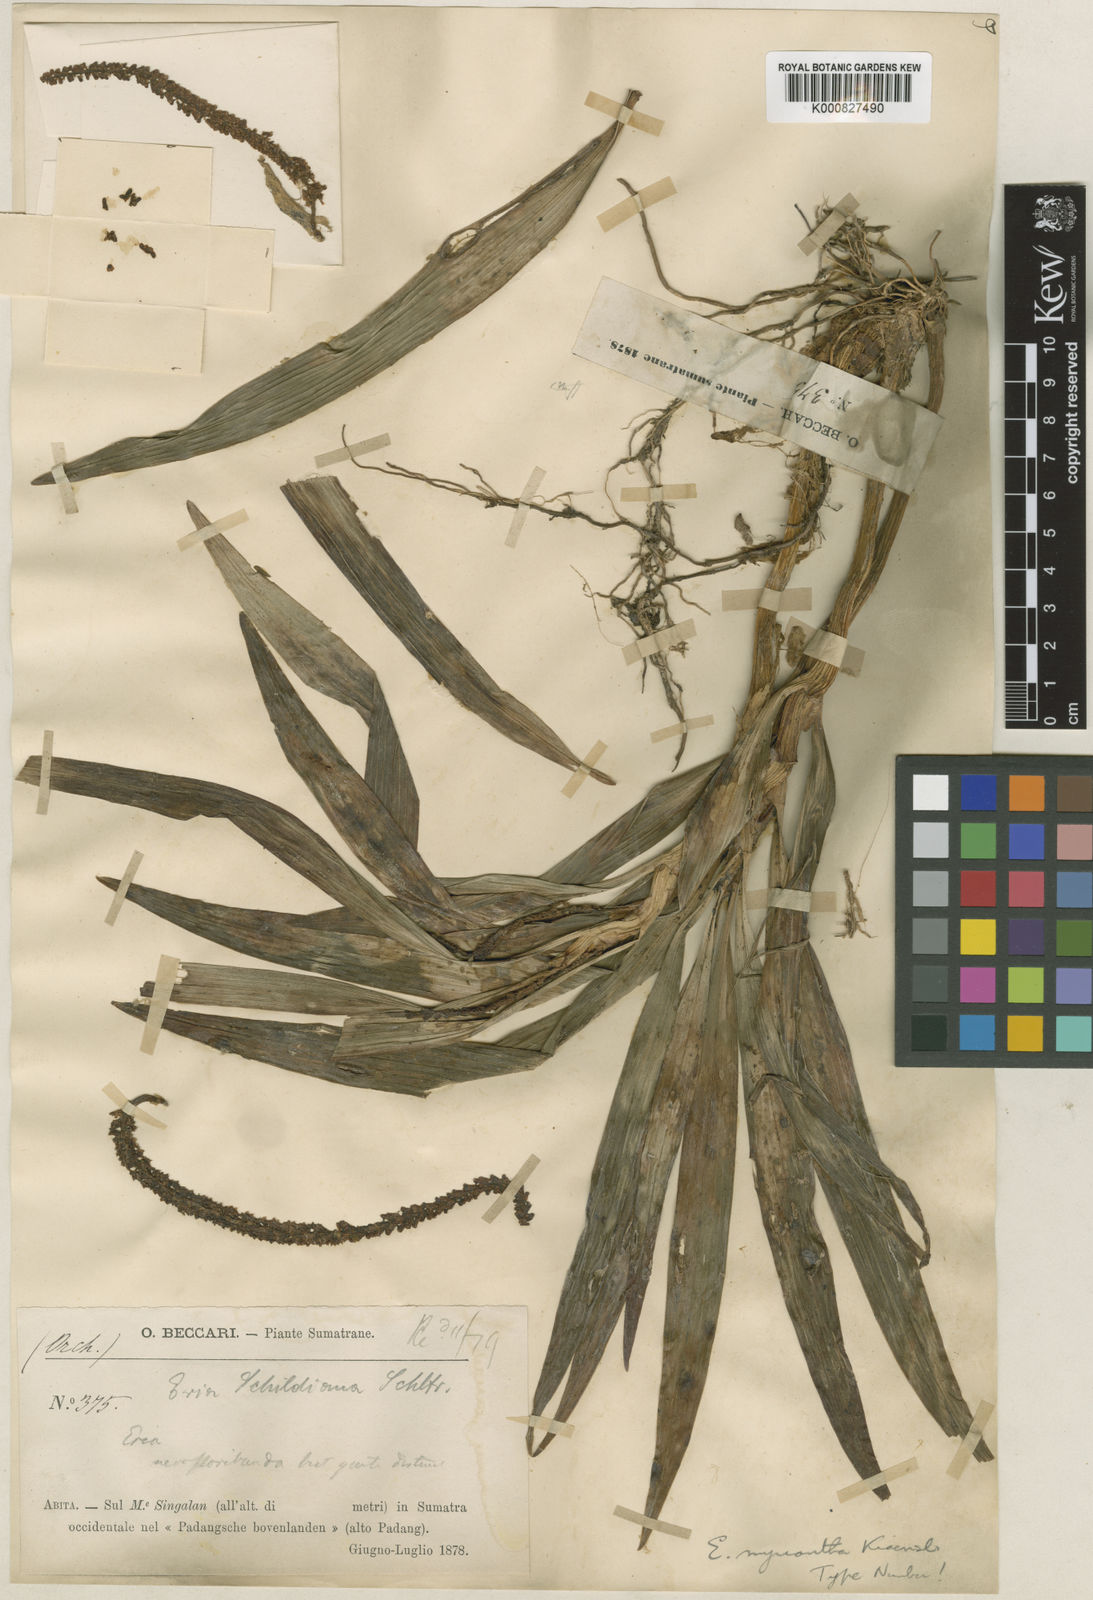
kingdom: Plantae
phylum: Tracheophyta
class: Liliopsida
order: Asparagales
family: Orchidaceae
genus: Pinalia
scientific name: Pinalia pachystachya
